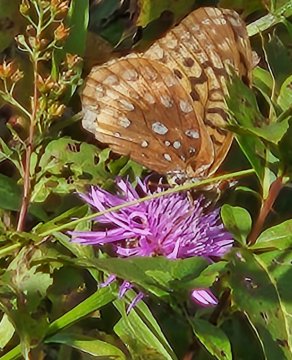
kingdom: Animalia
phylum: Arthropoda
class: Insecta
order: Lepidoptera
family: Nymphalidae
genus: Speyeria
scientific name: Speyeria cybele
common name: Great Spangled Fritillary
